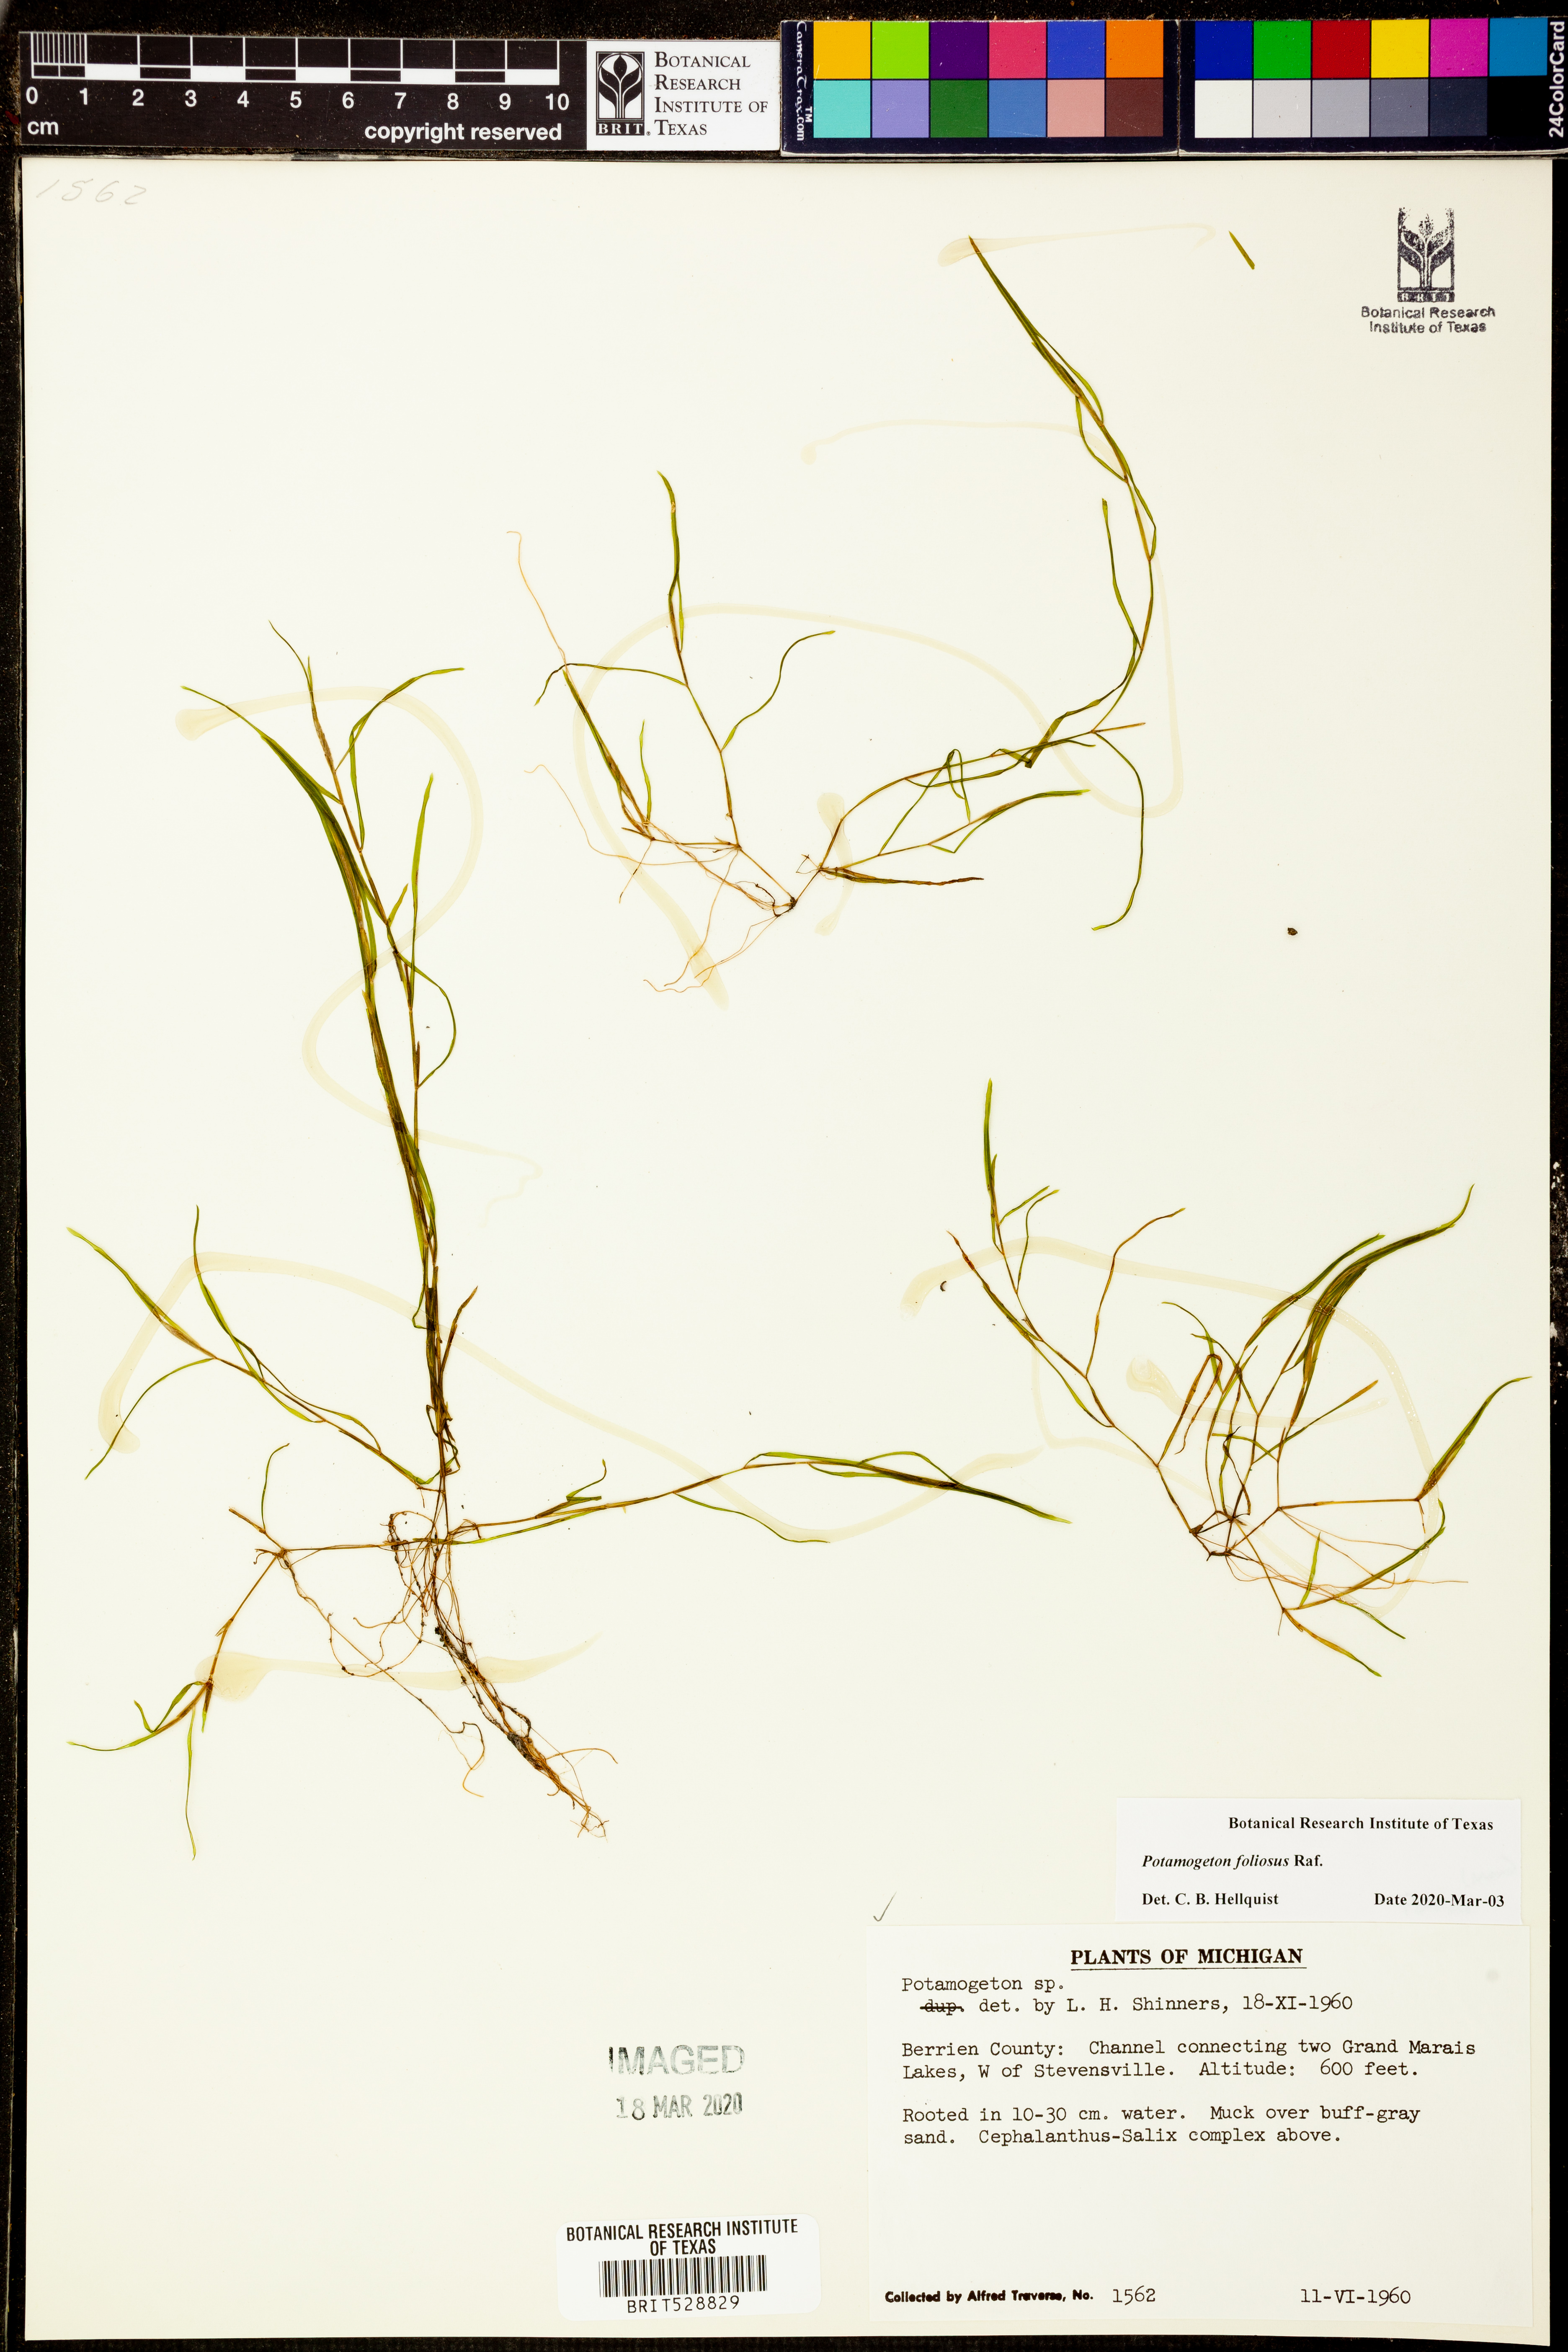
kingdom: Plantae
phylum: Tracheophyta
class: Liliopsida
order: Alismatales
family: Potamogetonaceae
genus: Potamogeton
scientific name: Potamogeton foliosus
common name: Leafy pondweed
